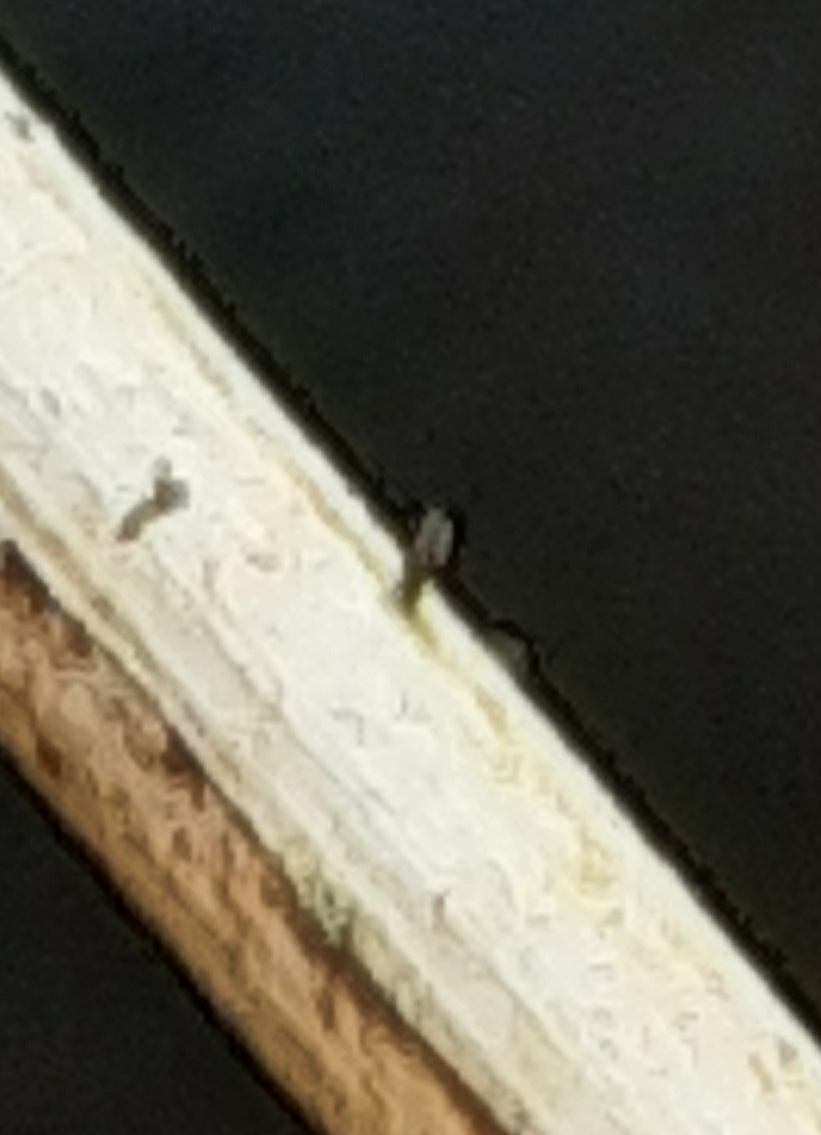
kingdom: Fungi
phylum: Ascomycota
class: Dothideomycetes
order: Acrospermales
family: Acrospermaceae
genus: Acrospermum
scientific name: Acrospermum pallidulum
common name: snerre-stængeltunge
